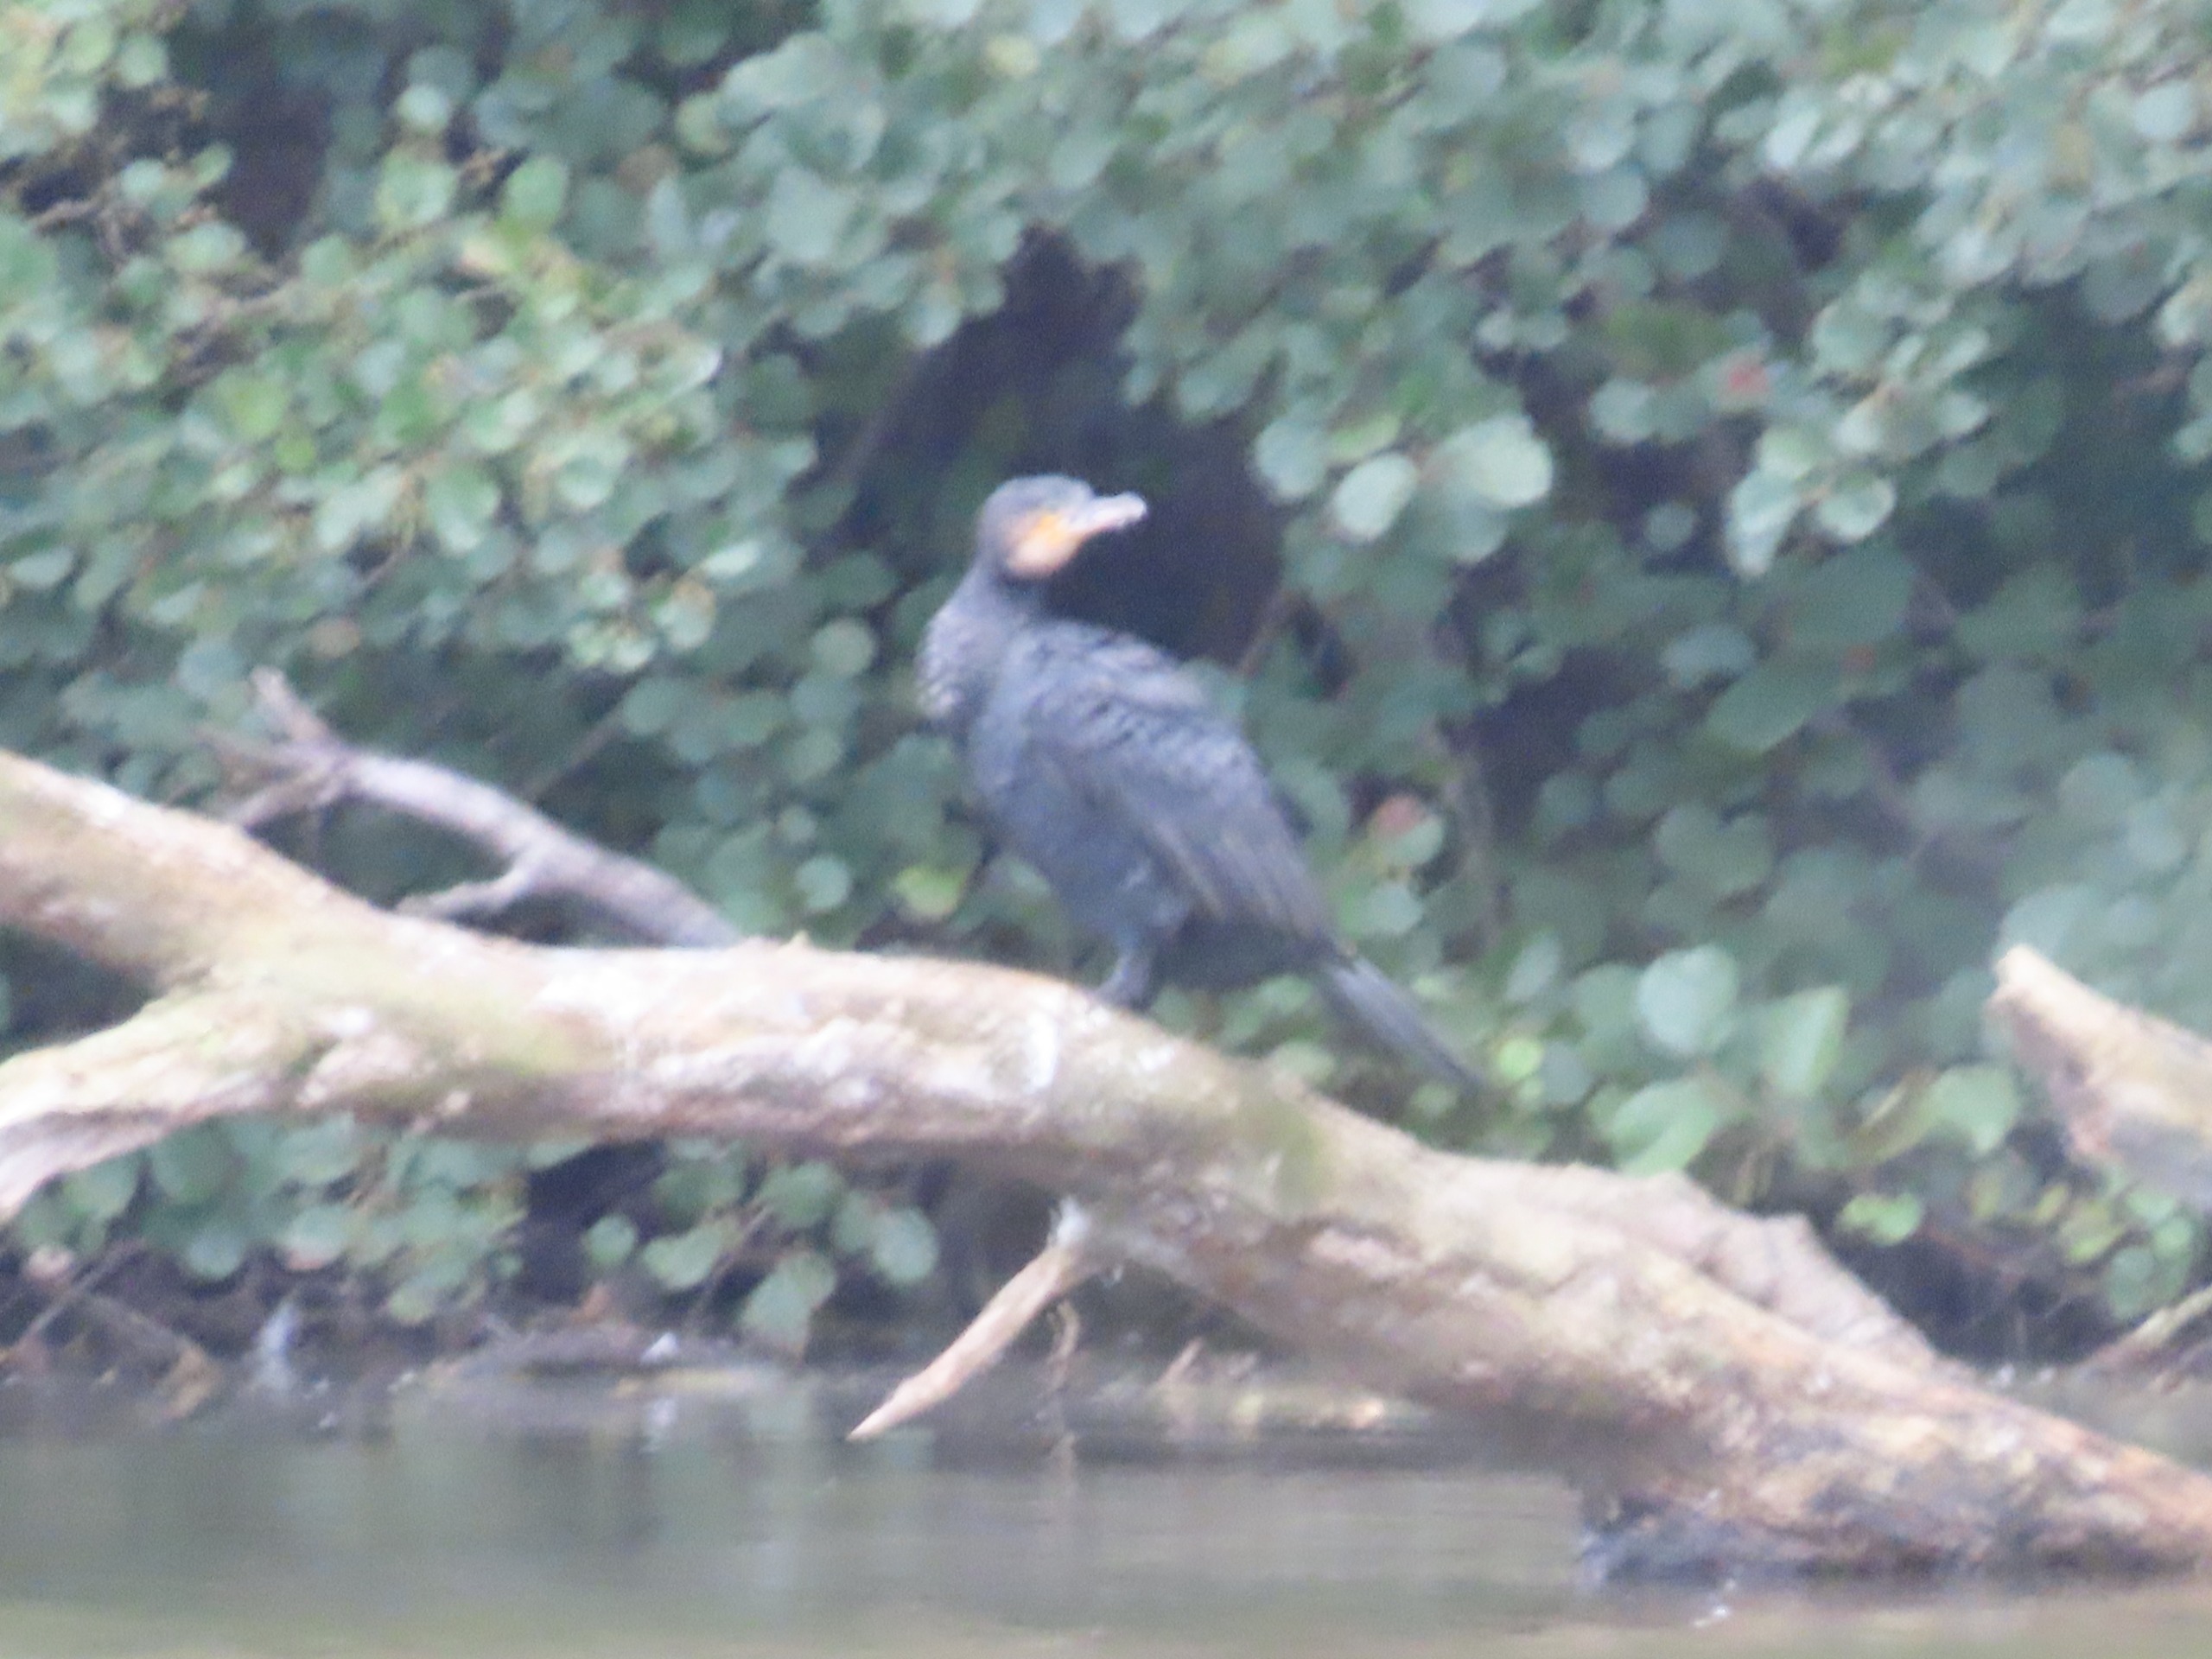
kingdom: Animalia
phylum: Chordata
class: Aves
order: Suliformes
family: Phalacrocoracidae
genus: Phalacrocorax
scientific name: Phalacrocorax carbo
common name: Skarv
